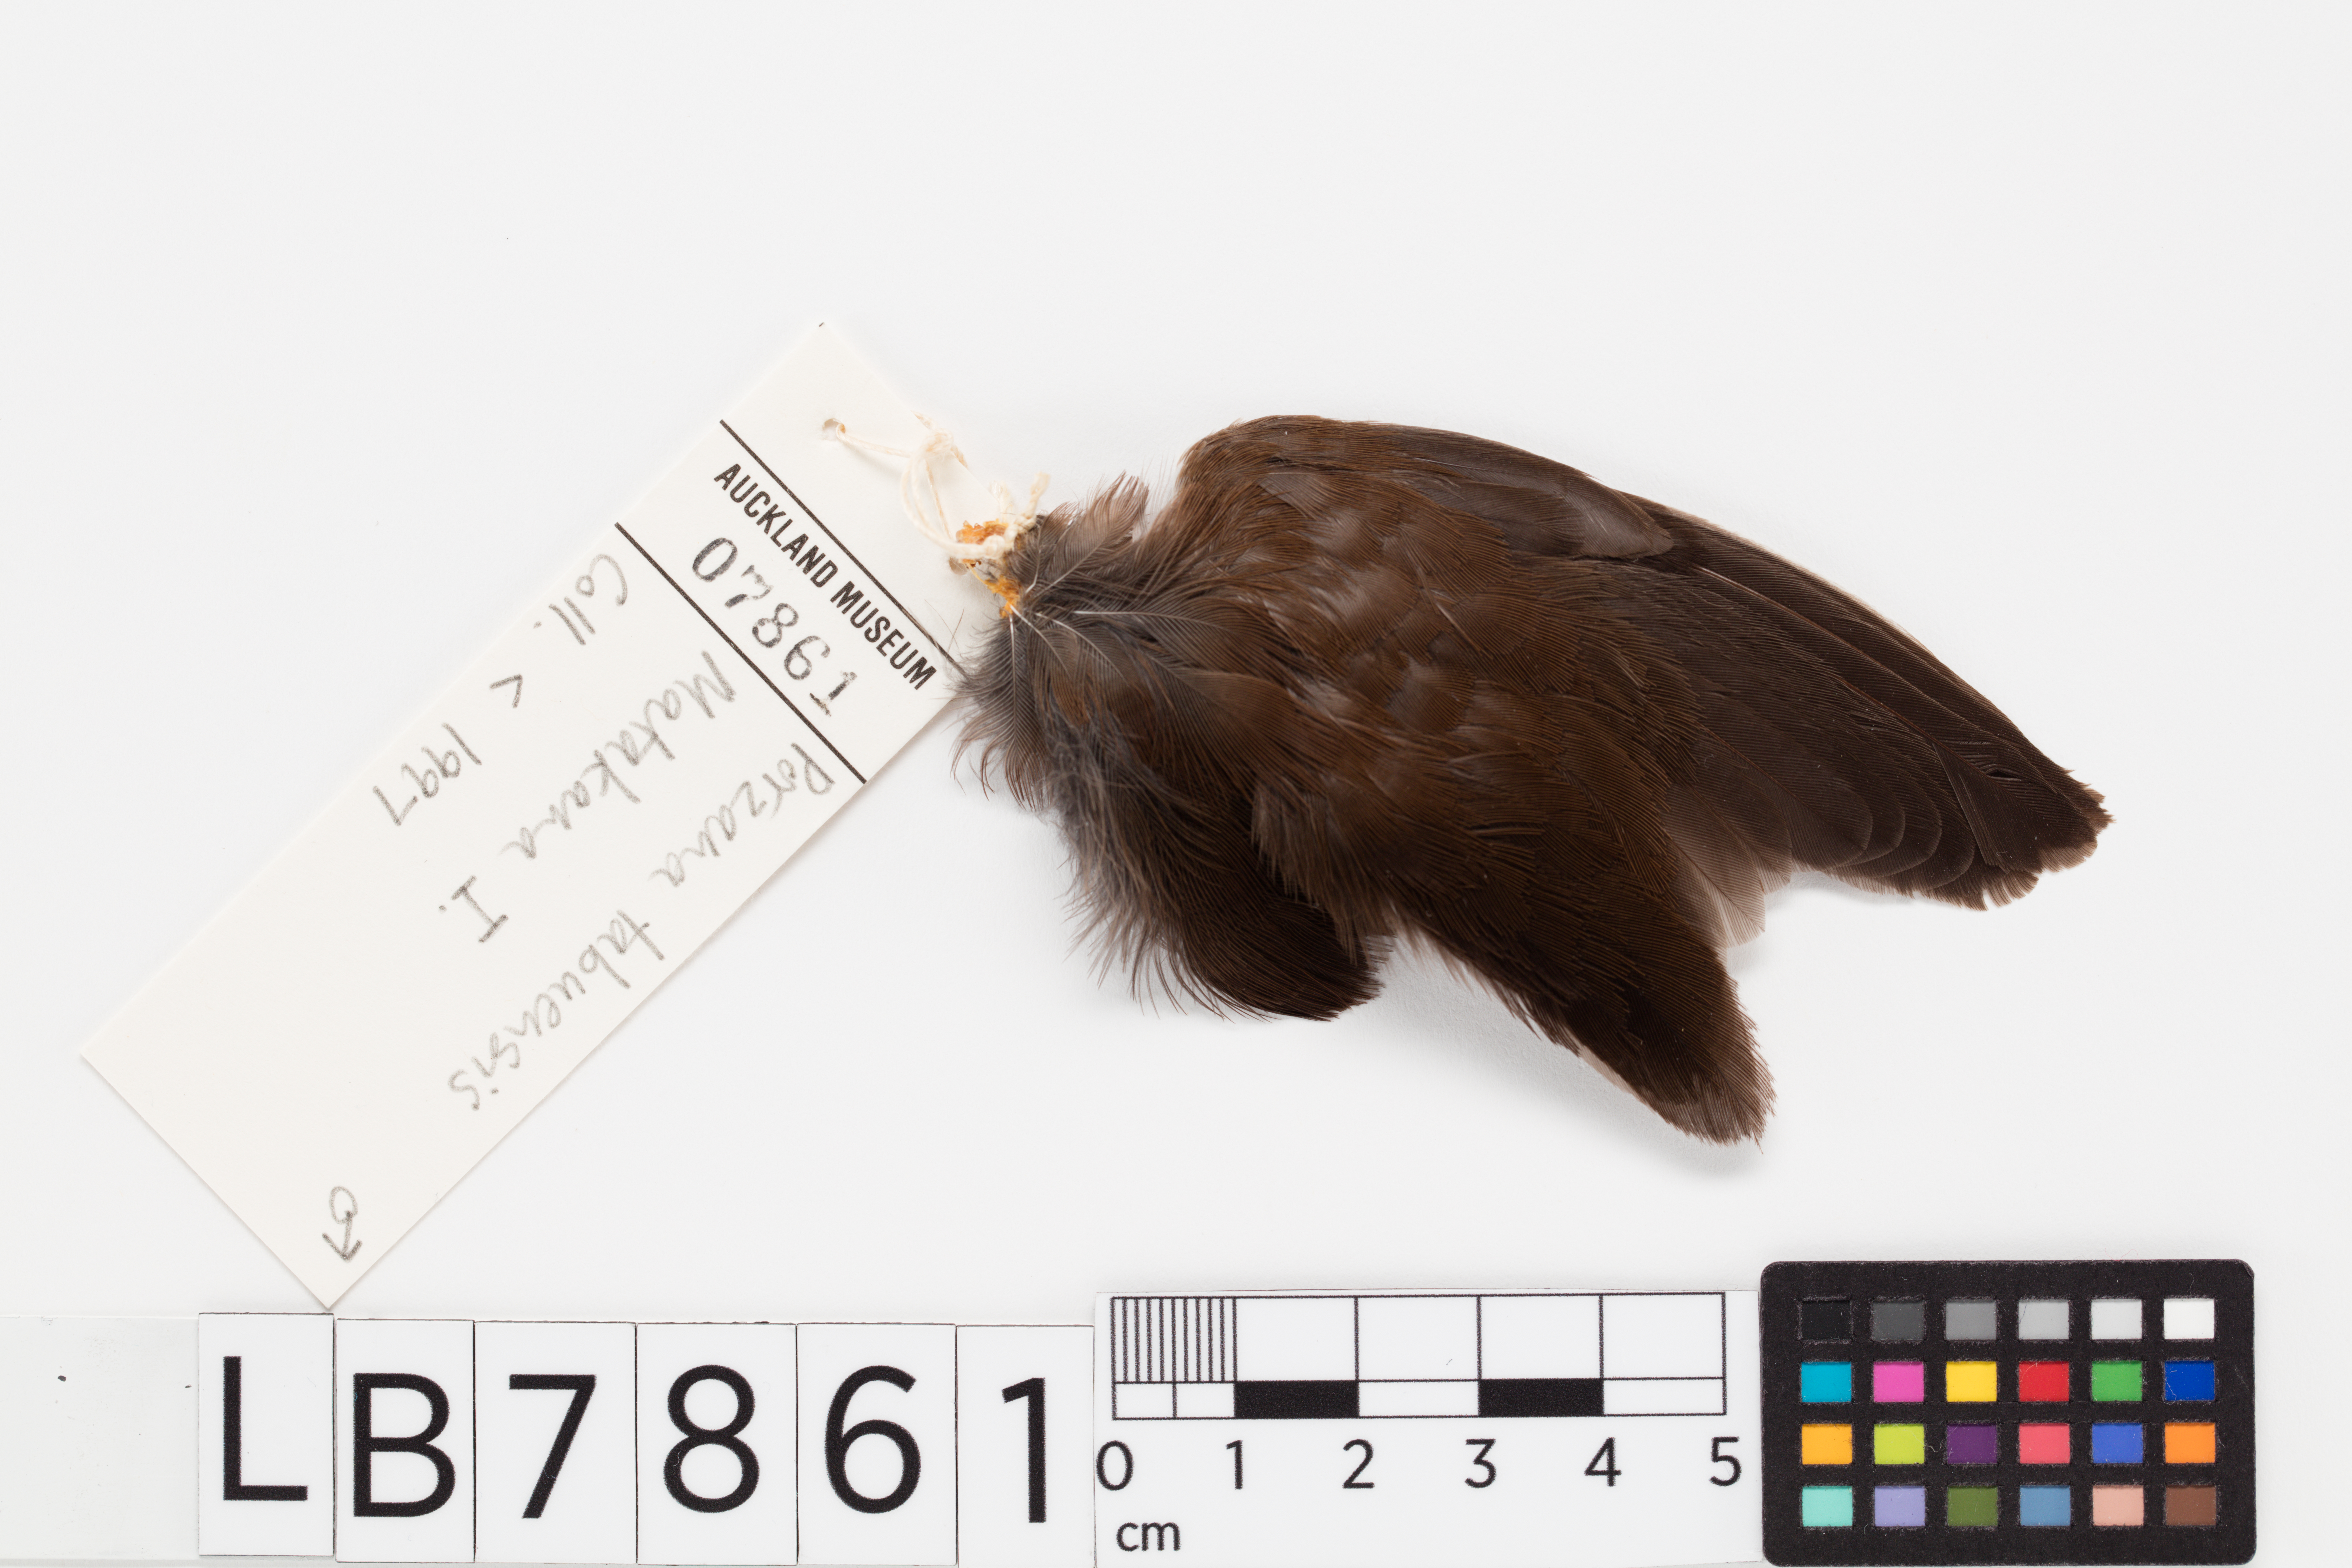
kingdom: Animalia
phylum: Chordata
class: Aves
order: Gruiformes
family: Rallidae
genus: Porzana
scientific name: Porzana tabuensis
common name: Spotless crake
